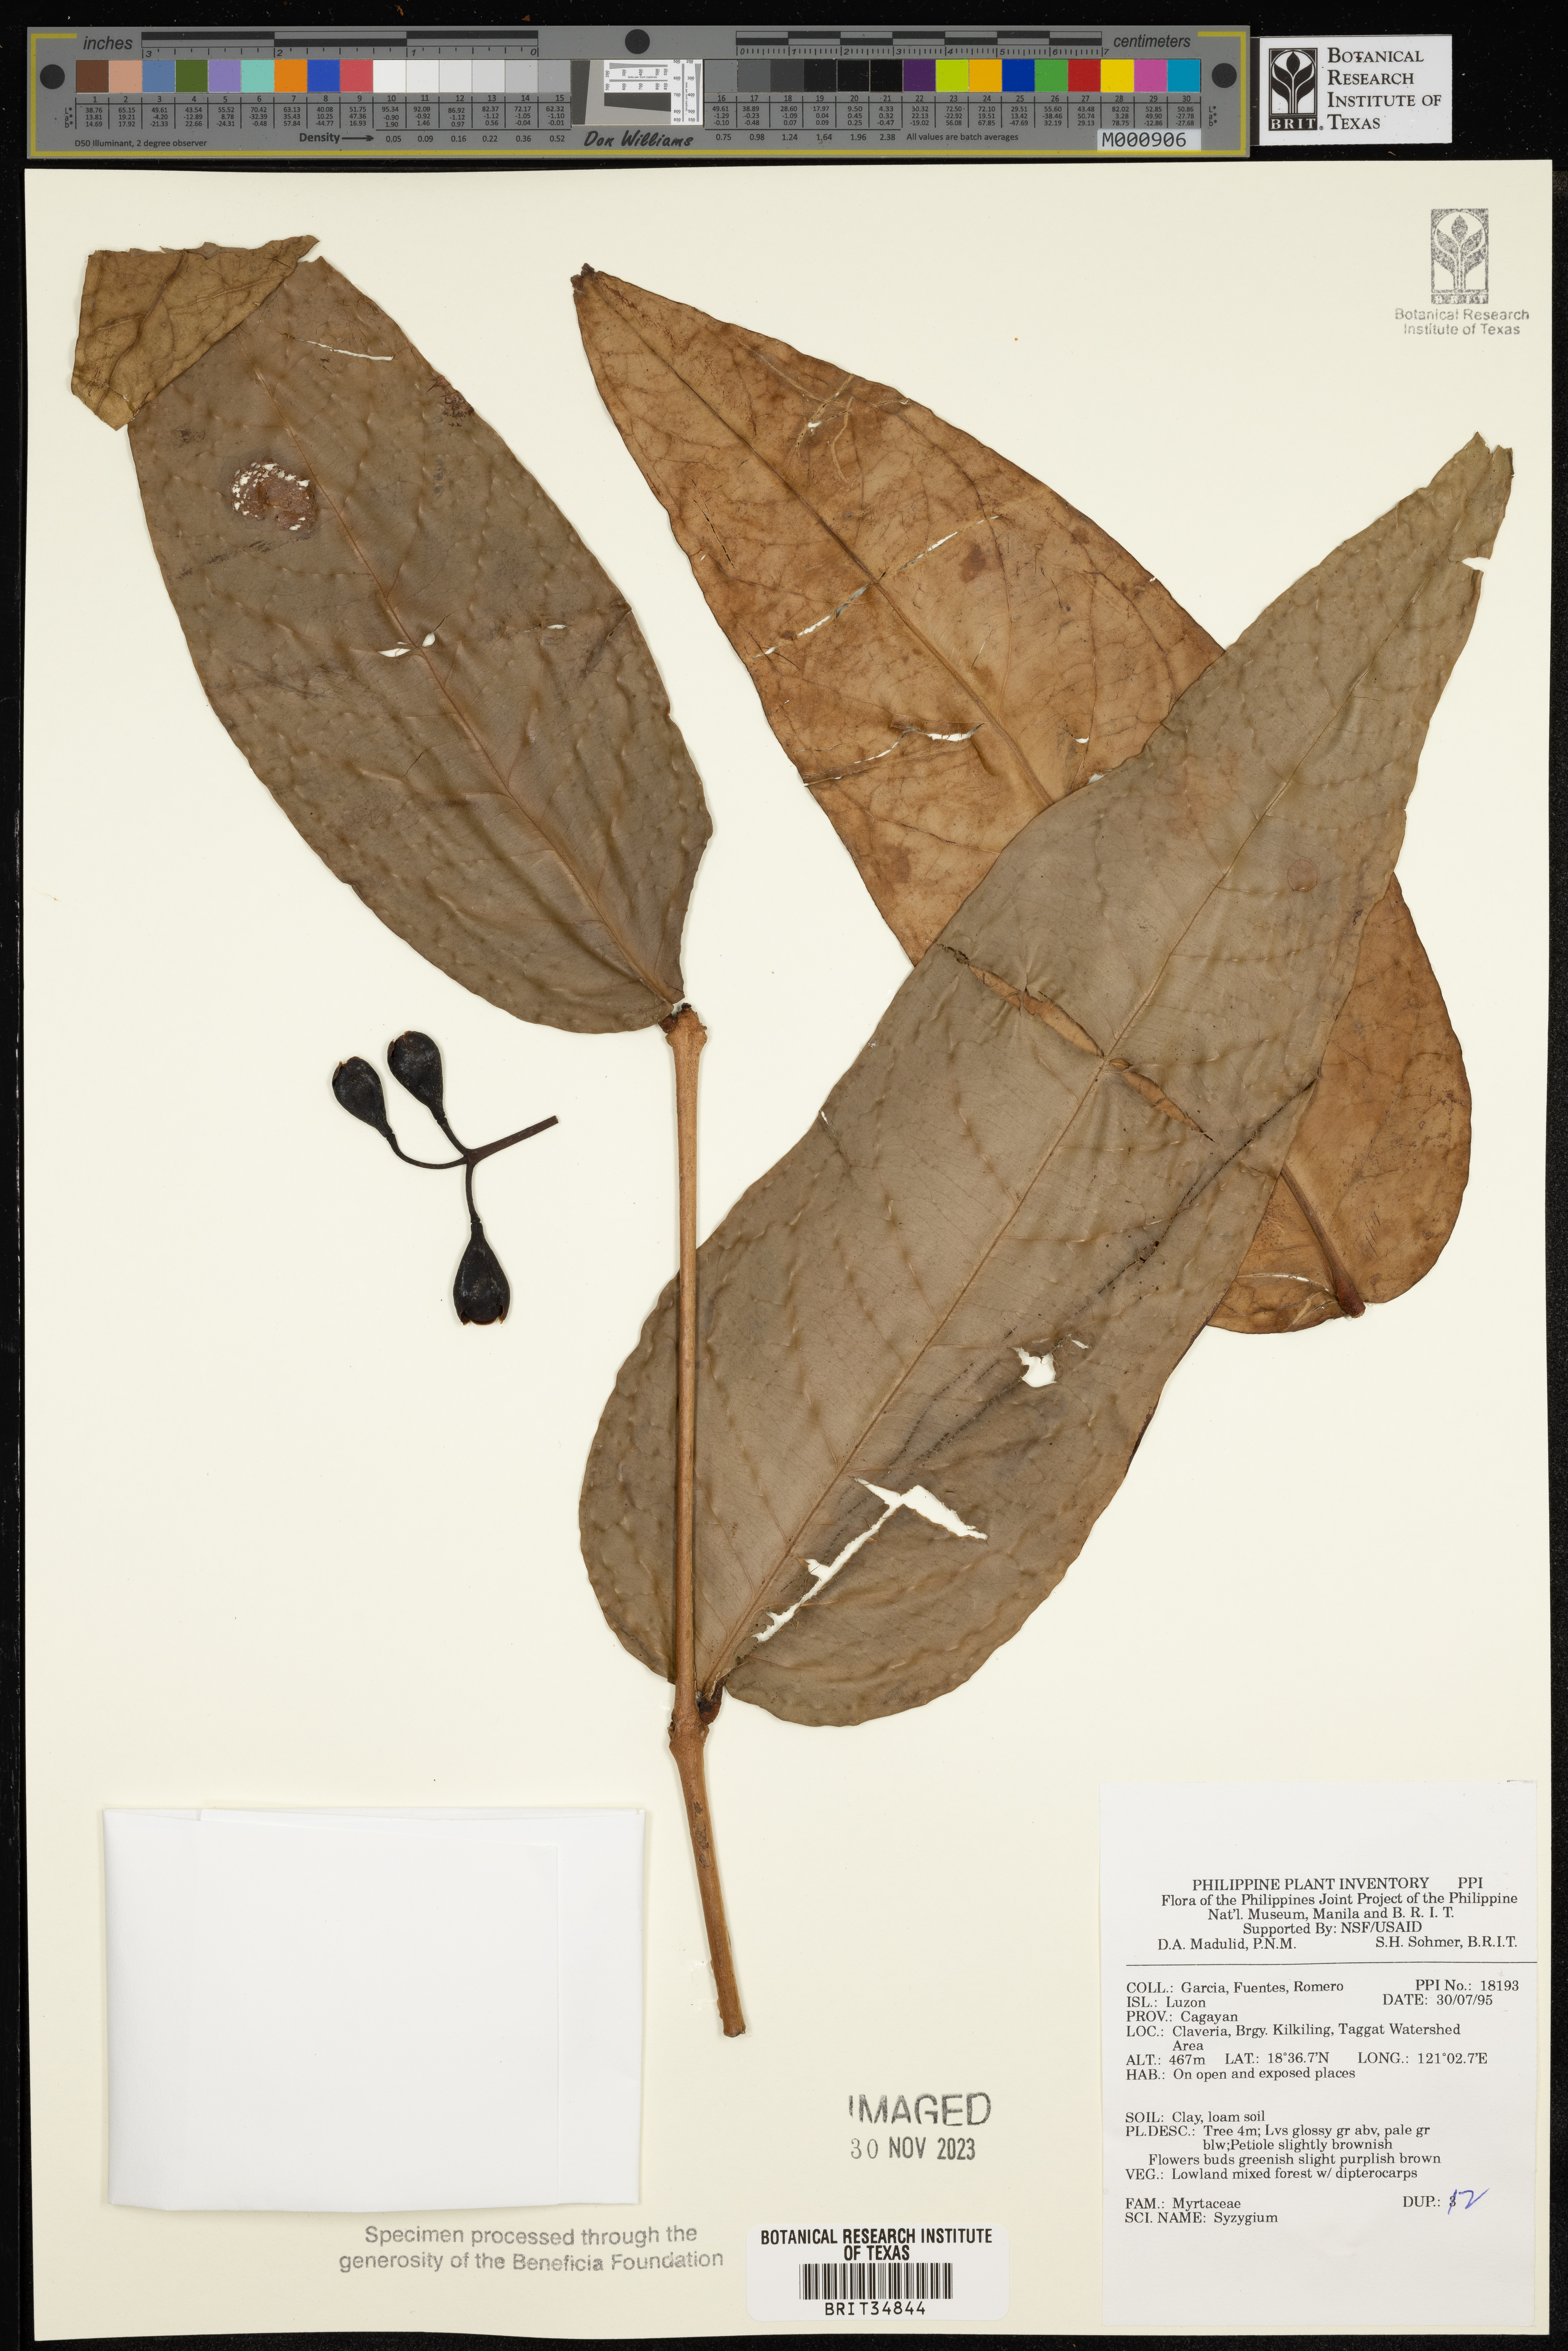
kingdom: Plantae
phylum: Tracheophyta
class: Magnoliopsida
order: Myrtales
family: Myrtaceae
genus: Syzygium
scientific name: Syzygium
